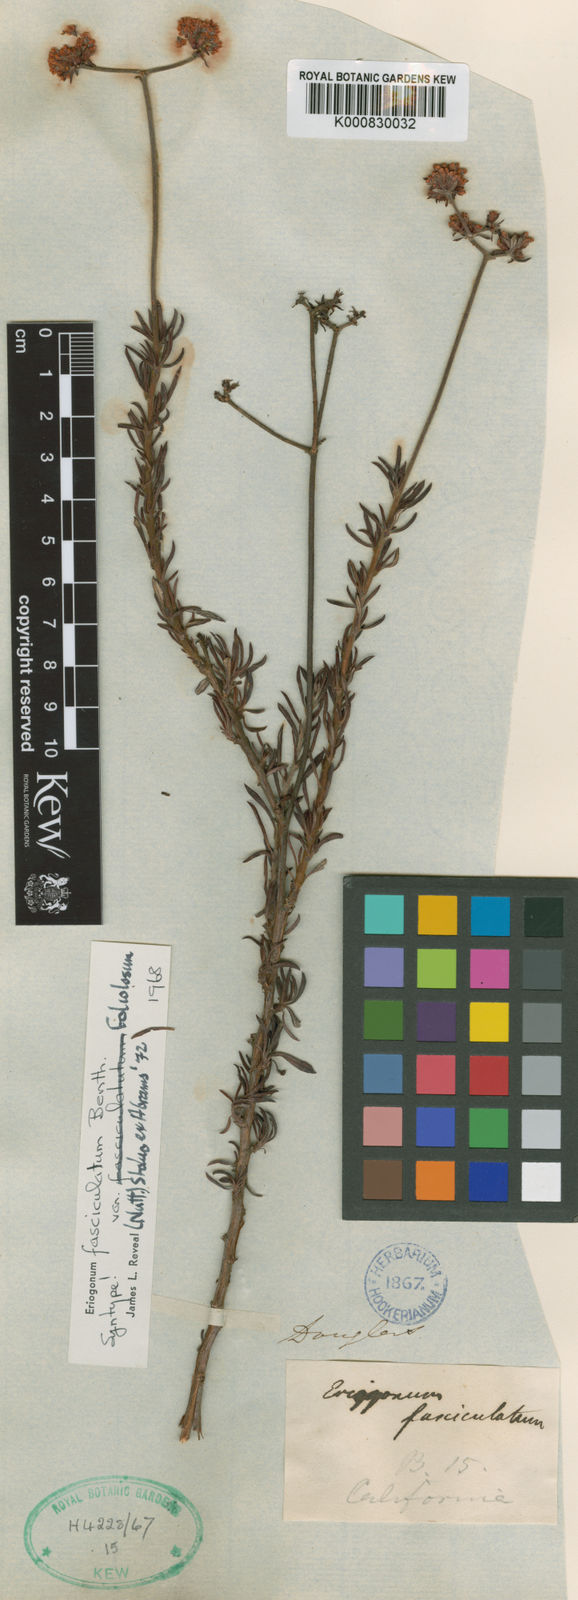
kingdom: Plantae
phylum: Tracheophyta
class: Magnoliopsida
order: Caryophyllales
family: Polygonaceae
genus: Eriogonum
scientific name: Eriogonum fasciculatum
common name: California wild buckwheat
